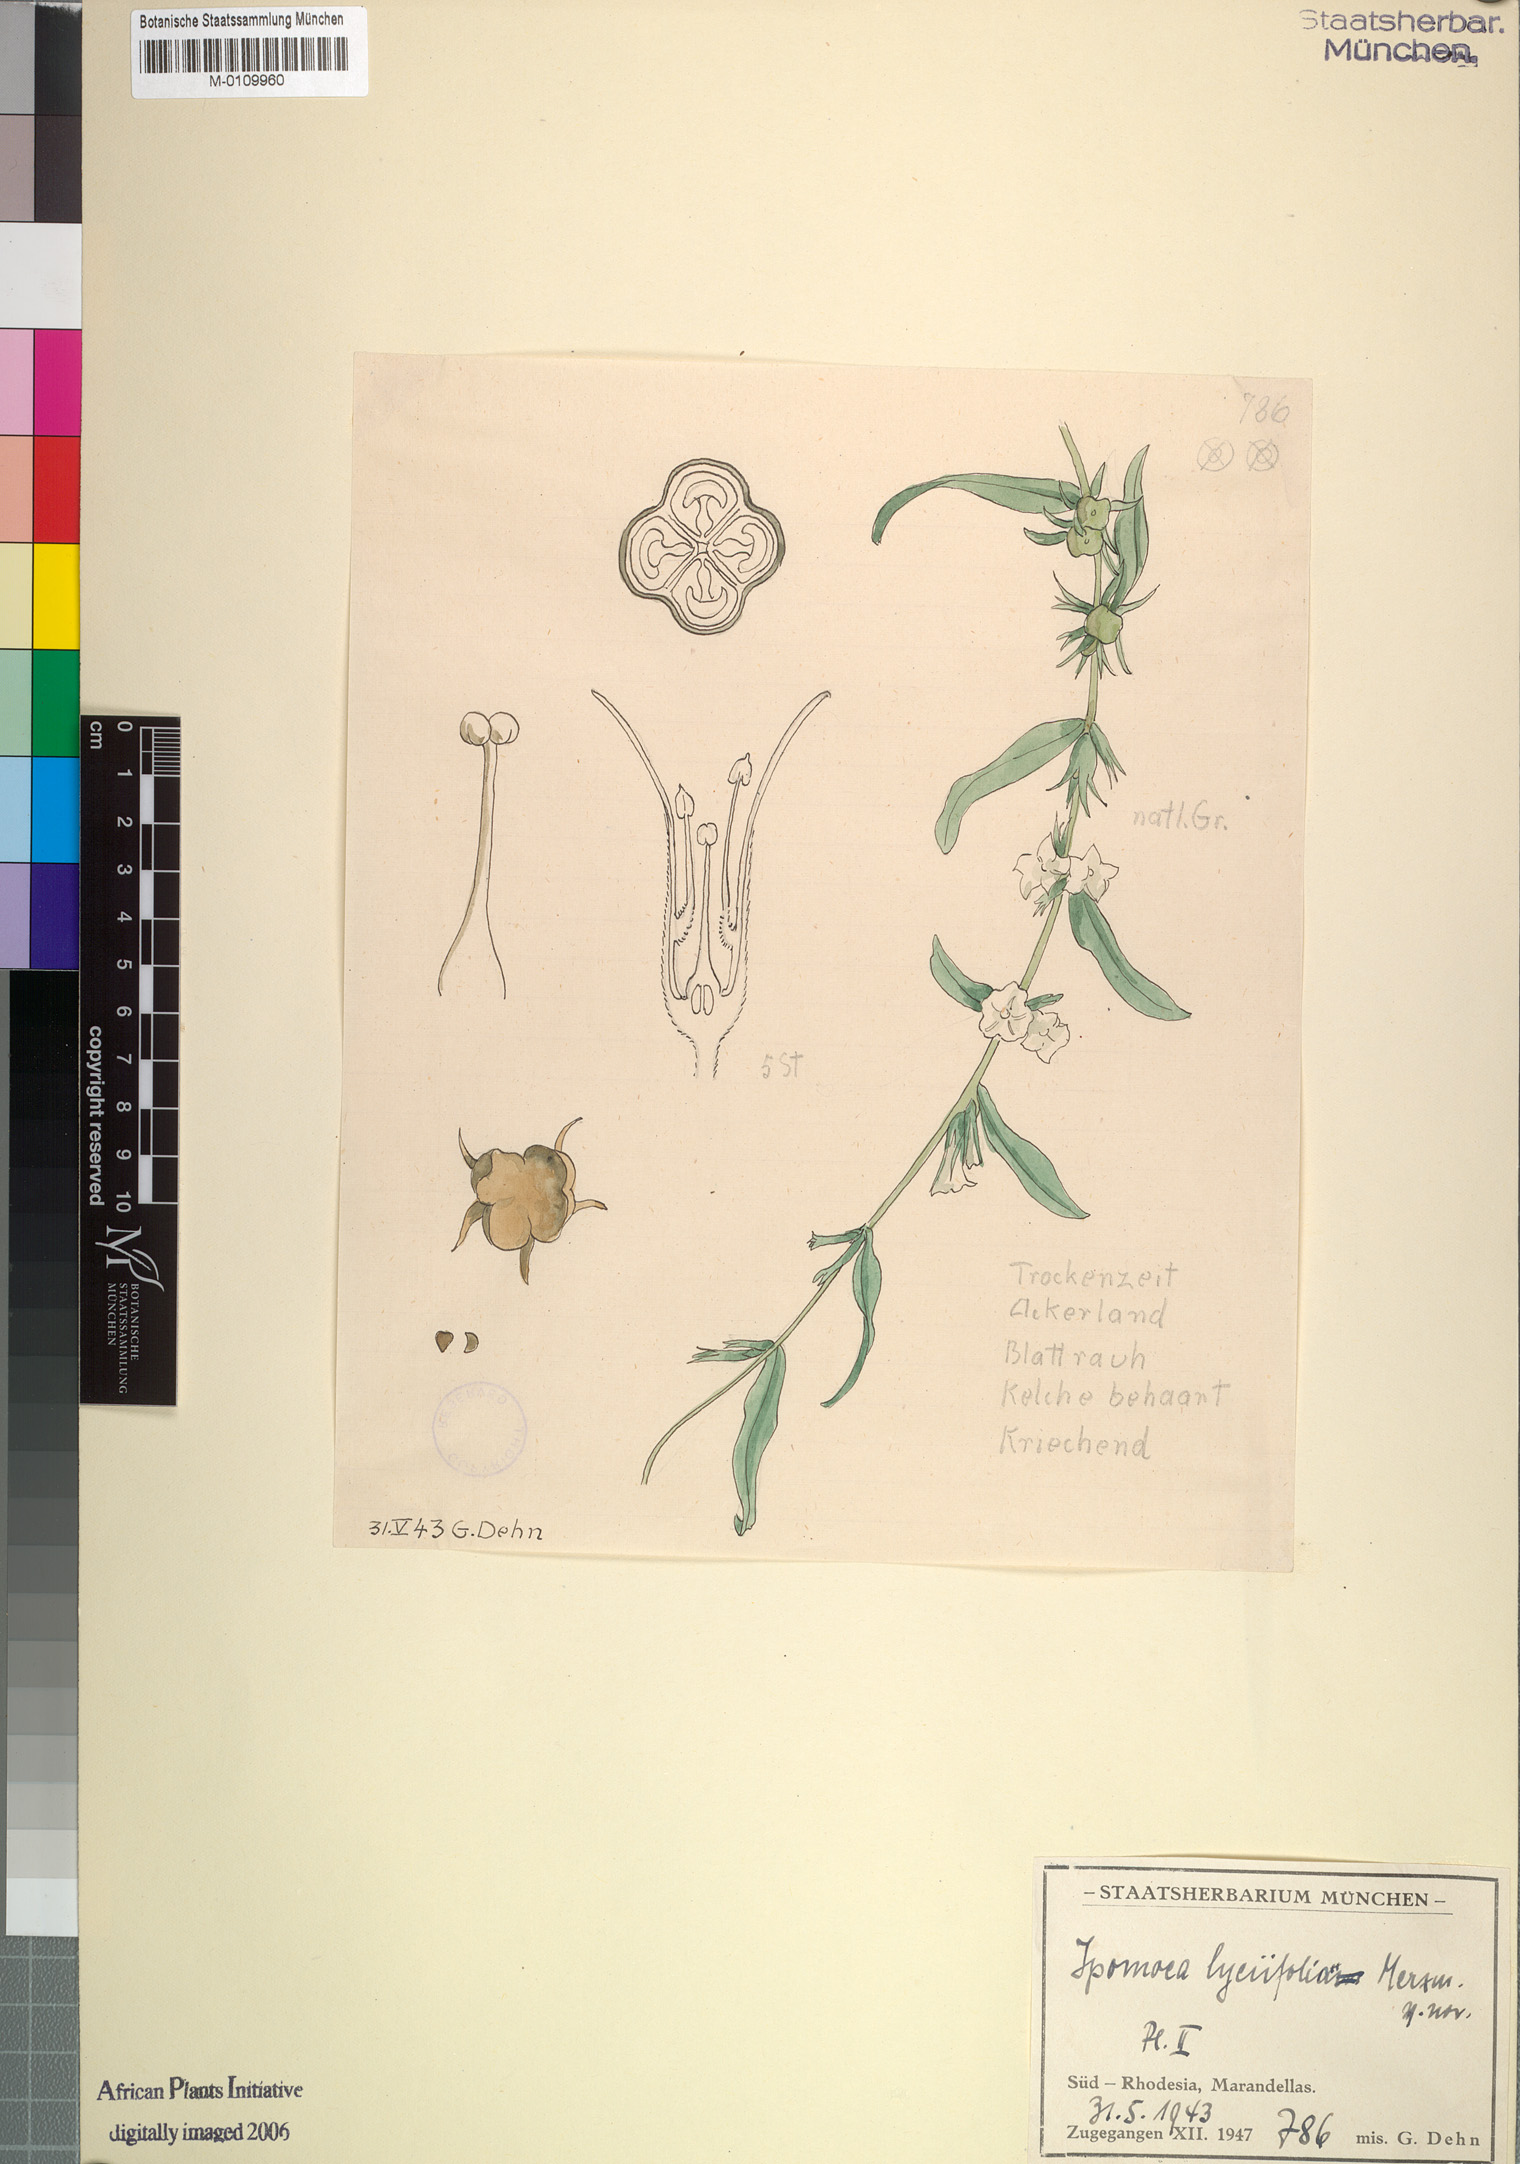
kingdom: Plantae
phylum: Tracheophyta
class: Magnoliopsida
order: Solanales
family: Convolvulaceae
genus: Ipomoea
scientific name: Ipomoea gracilisepala
